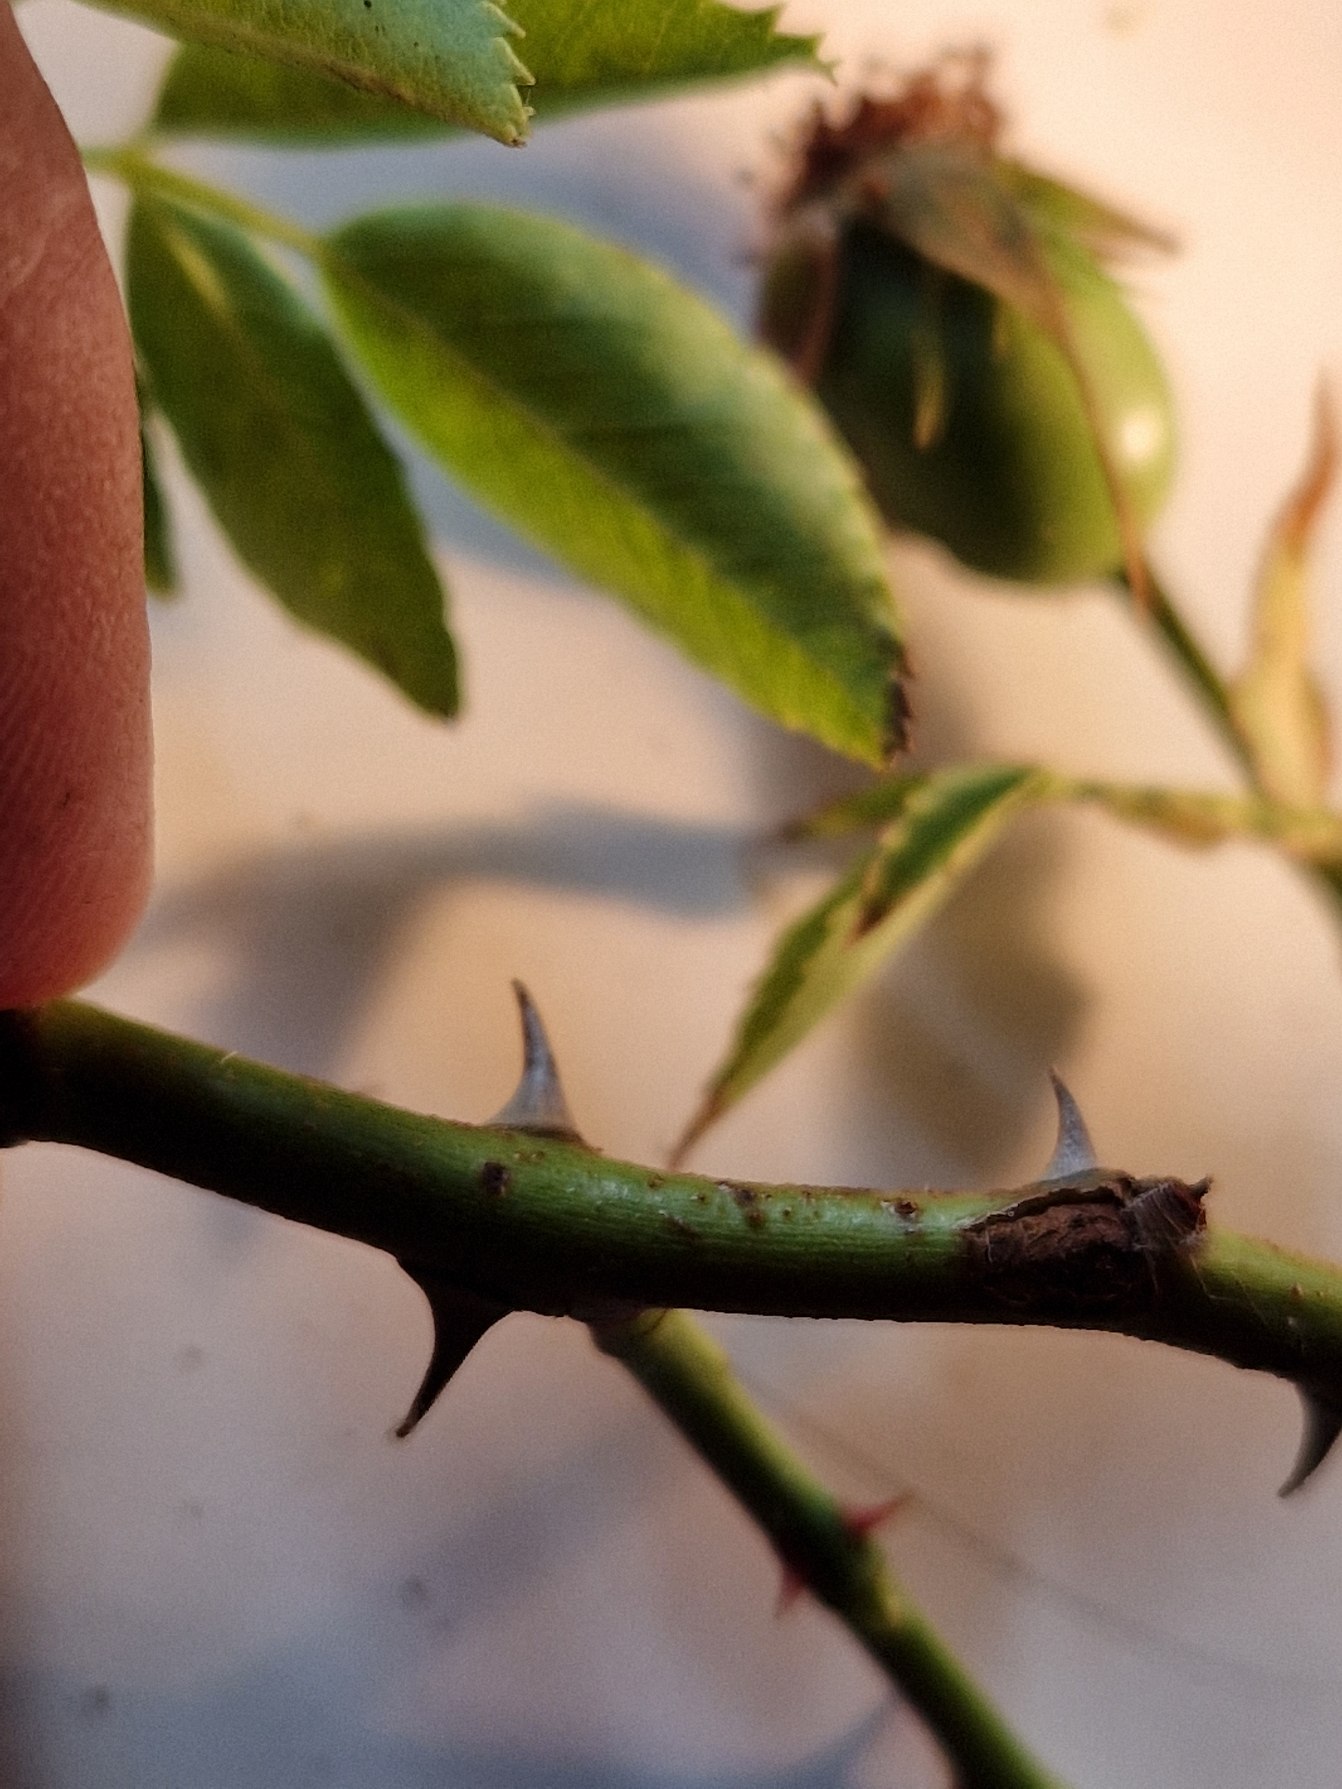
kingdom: Plantae
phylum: Tracheophyta
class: Magnoliopsida
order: Rosales
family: Rosaceae
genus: Rosa
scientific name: Rosa canina
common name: Glat hunde-rose
